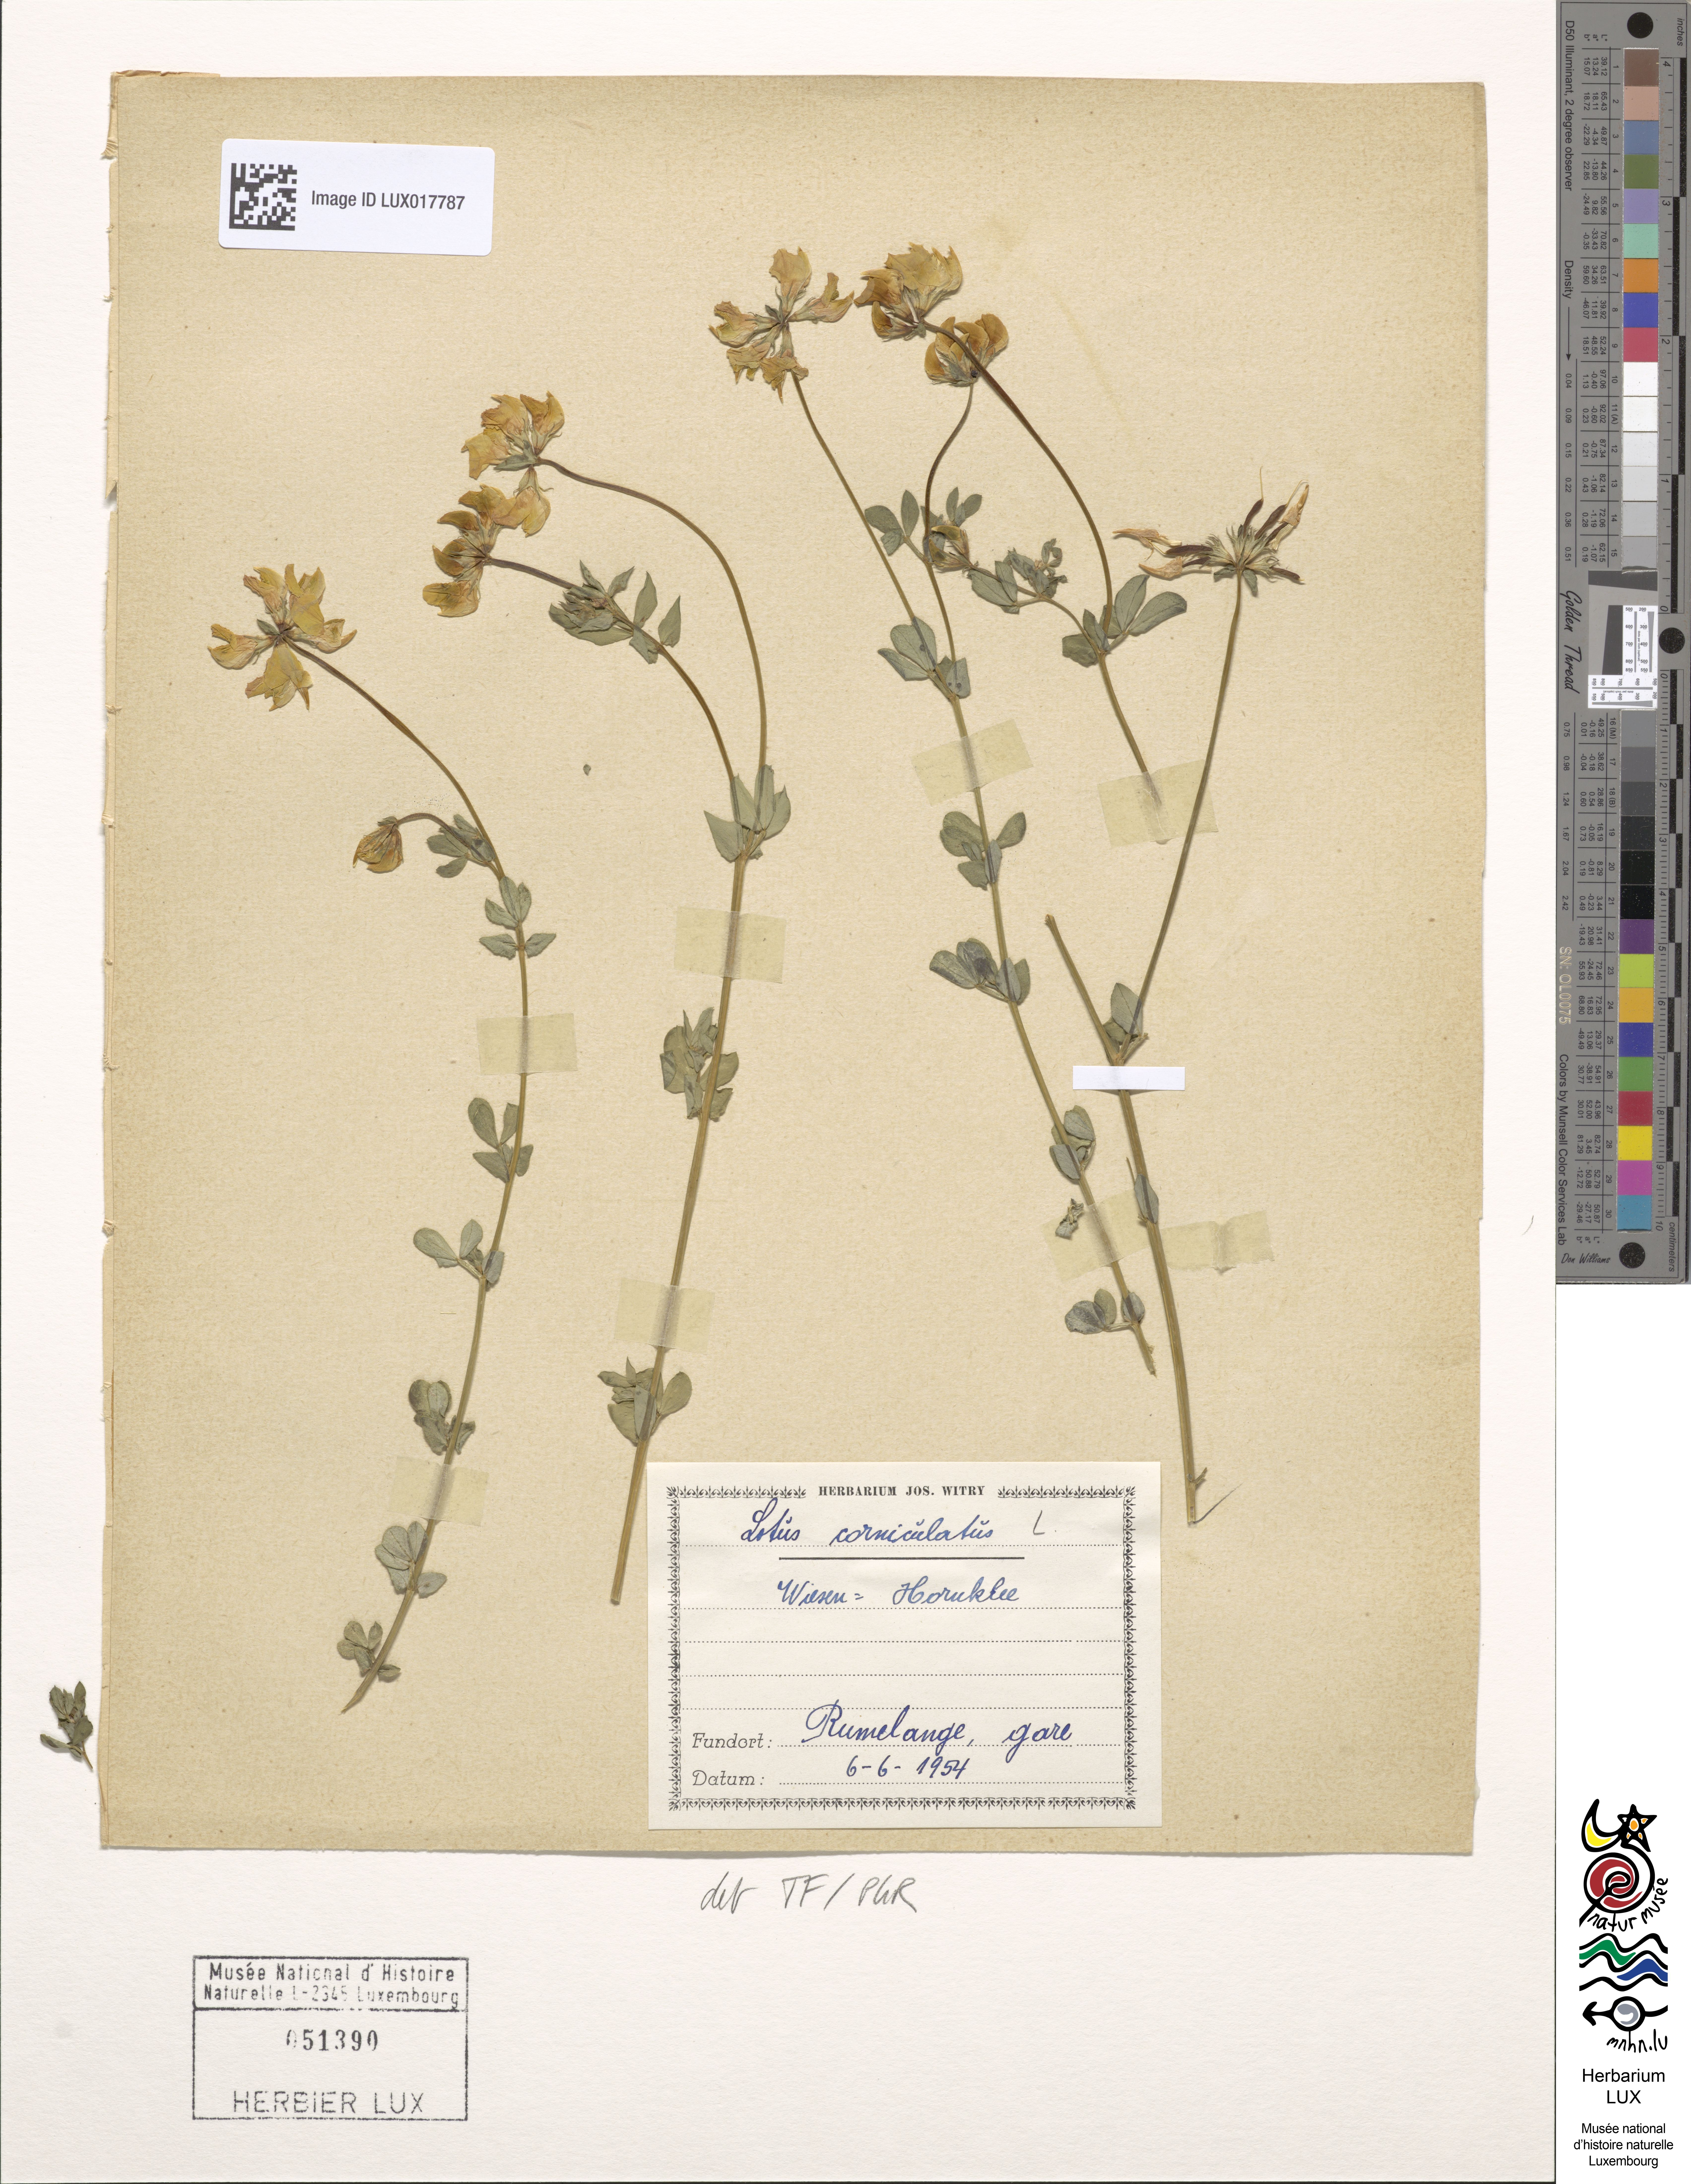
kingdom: Plantae
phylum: Tracheophyta
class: Magnoliopsida
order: Fabales
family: Fabaceae
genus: Lotus
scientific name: Lotus corniculatus
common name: Common bird's-foot-trefoil
